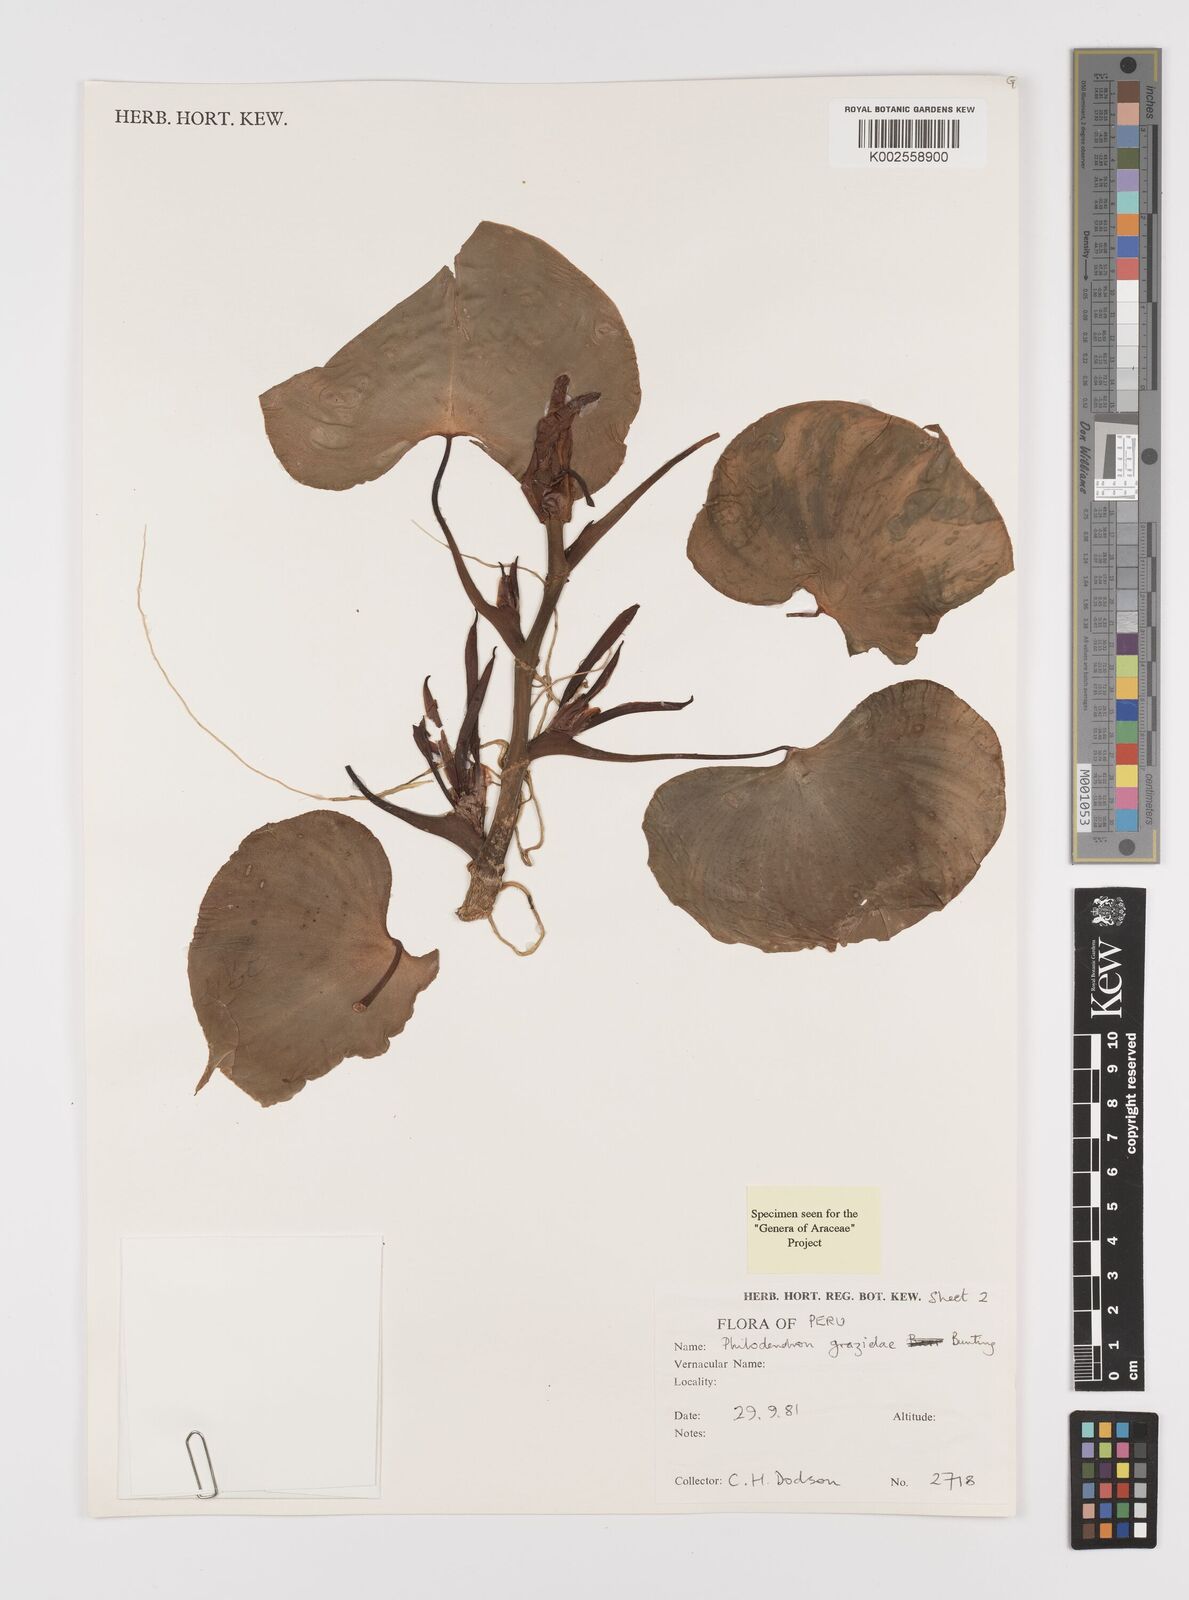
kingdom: Plantae
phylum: Tracheophyta
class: Liliopsida
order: Alismatales
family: Araceae
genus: Philodendron
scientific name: Philodendron grazielae
